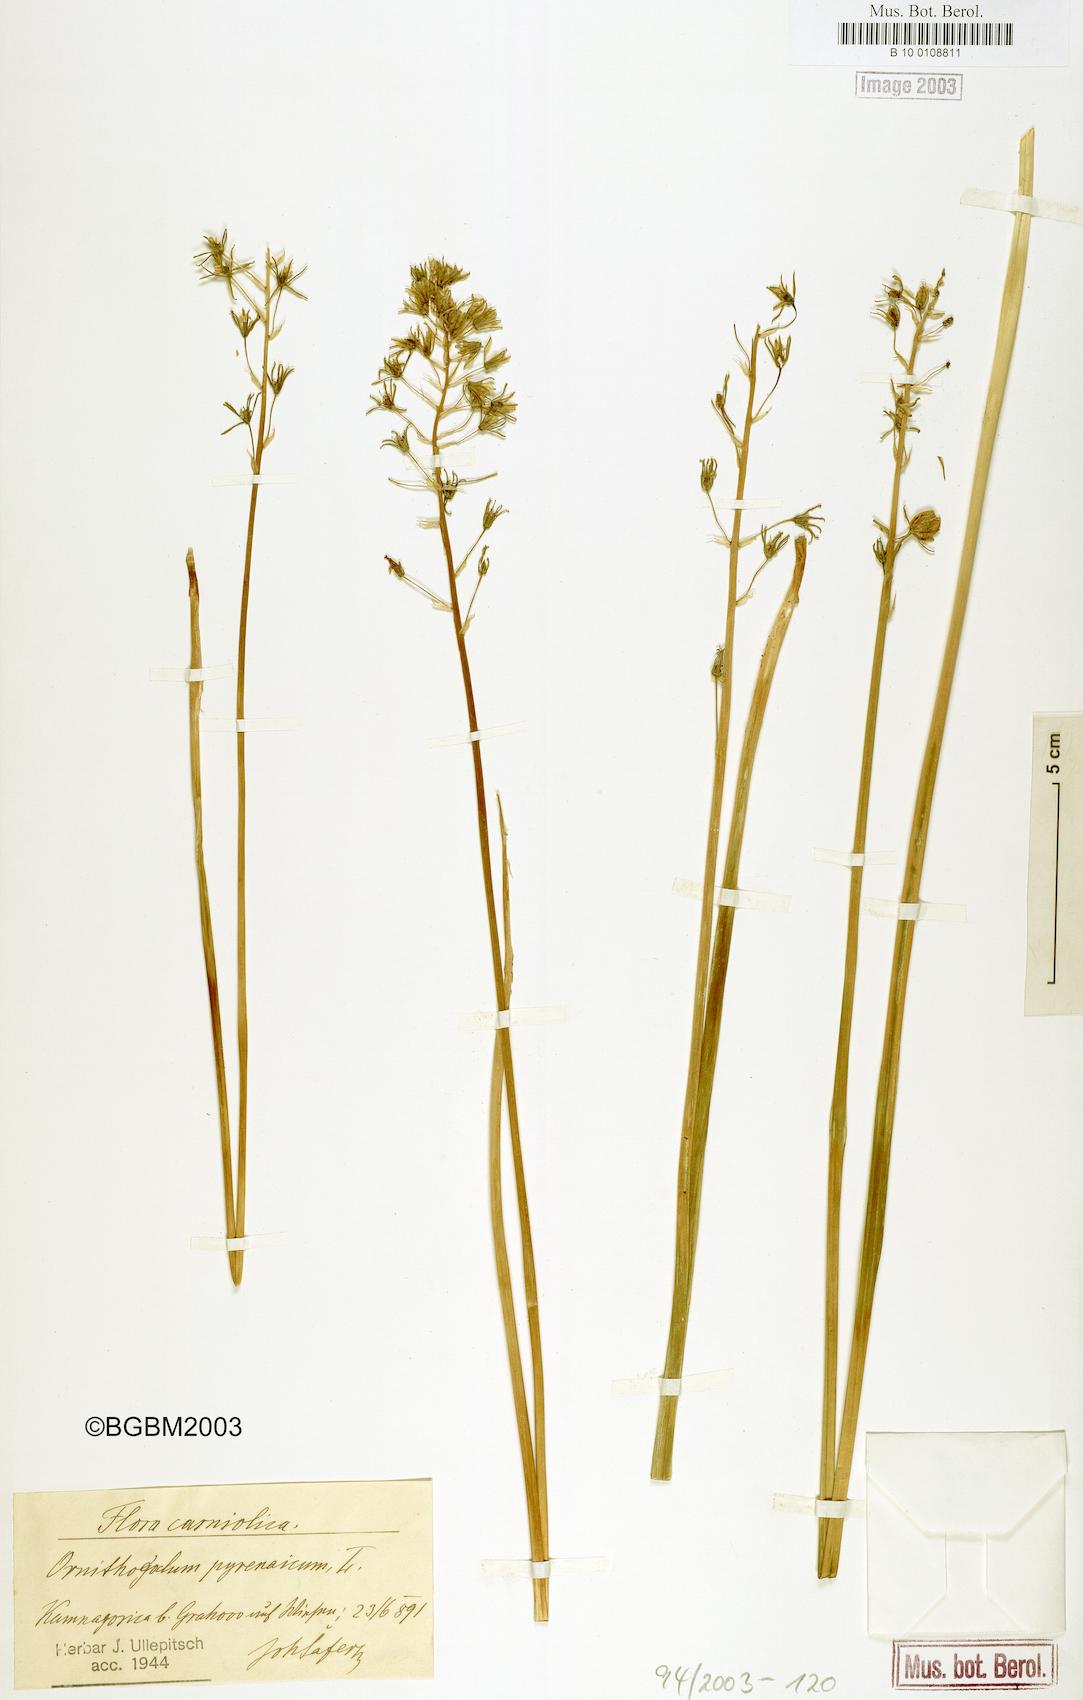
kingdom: Plantae
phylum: Tracheophyta
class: Liliopsida
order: Asparagales
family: Asparagaceae
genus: Ornithogalum
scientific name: Ornithogalum pyrenaicum
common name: Spiked star-of-bethlehem
